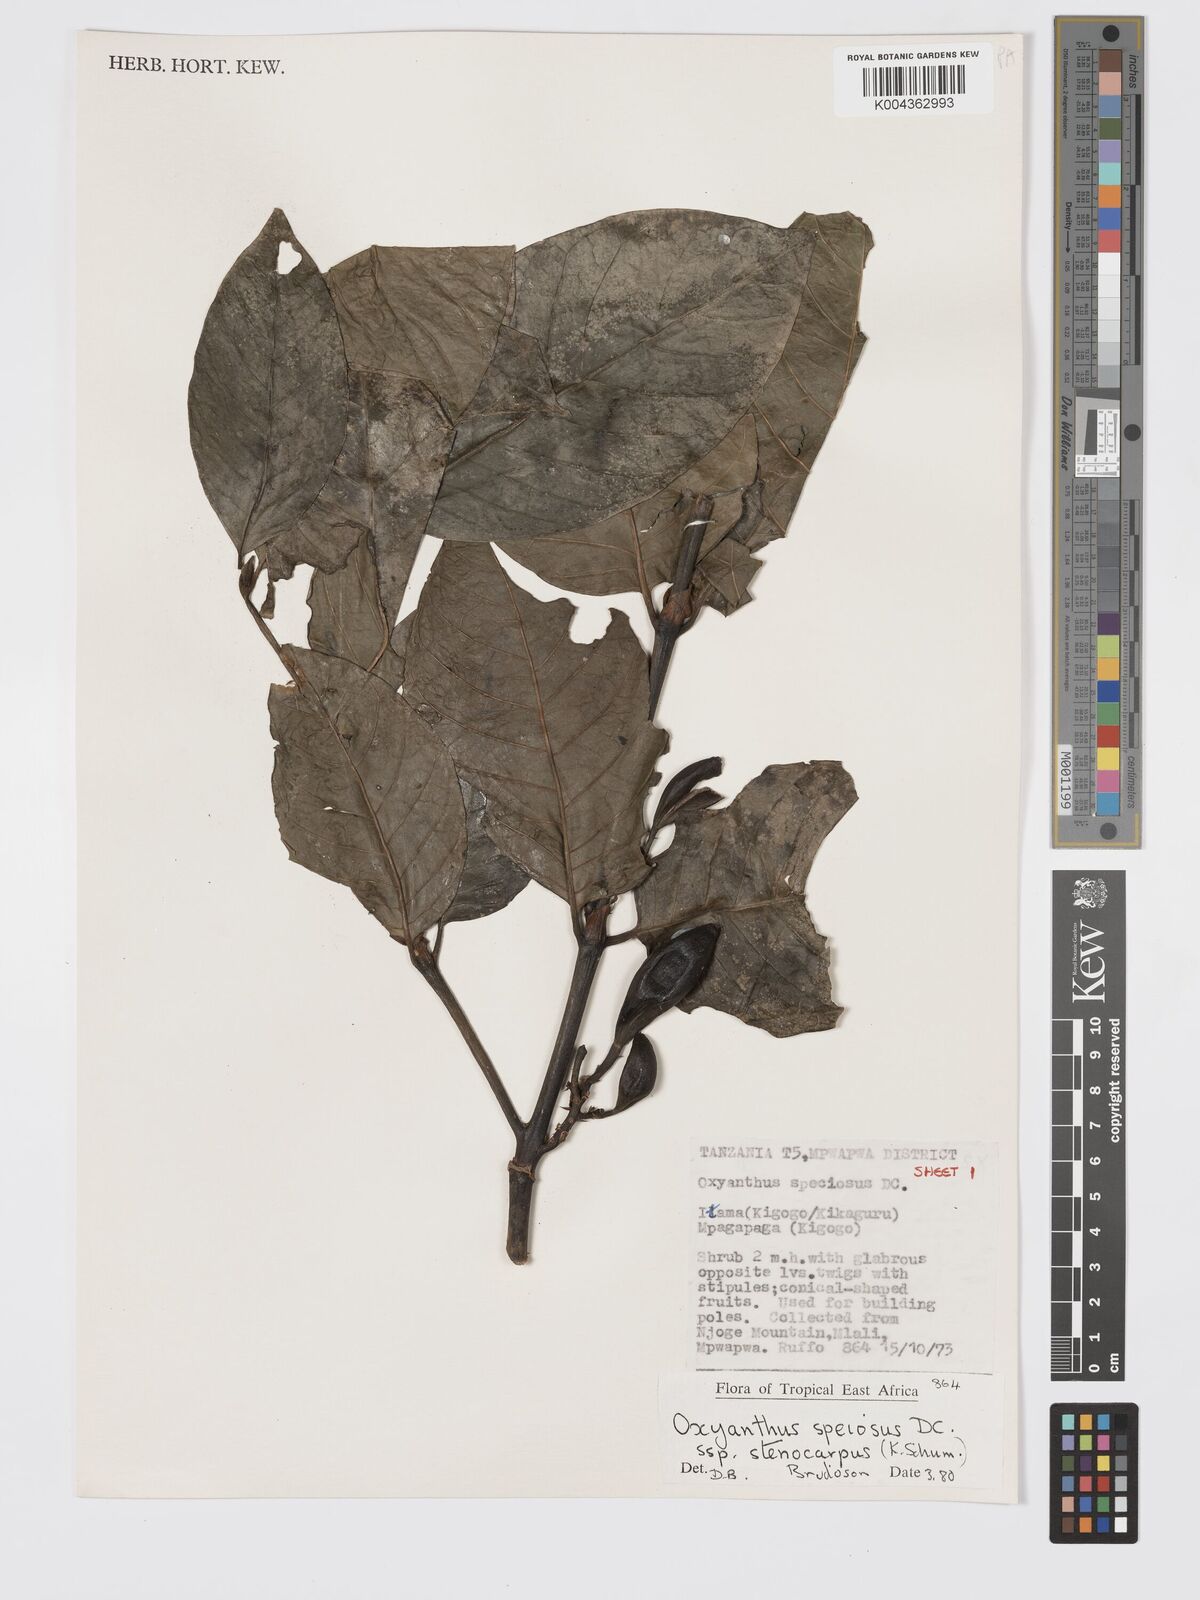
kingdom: Plantae
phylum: Tracheophyta
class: Magnoliopsida
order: Gentianales
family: Rubiaceae
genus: Oxyanthus
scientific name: Oxyanthus speciosus
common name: Whipstick loquat
